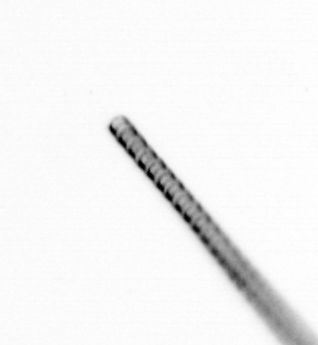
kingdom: Chromista
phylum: Ochrophyta
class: Bacillariophyceae
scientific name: Bacillariophyceae
